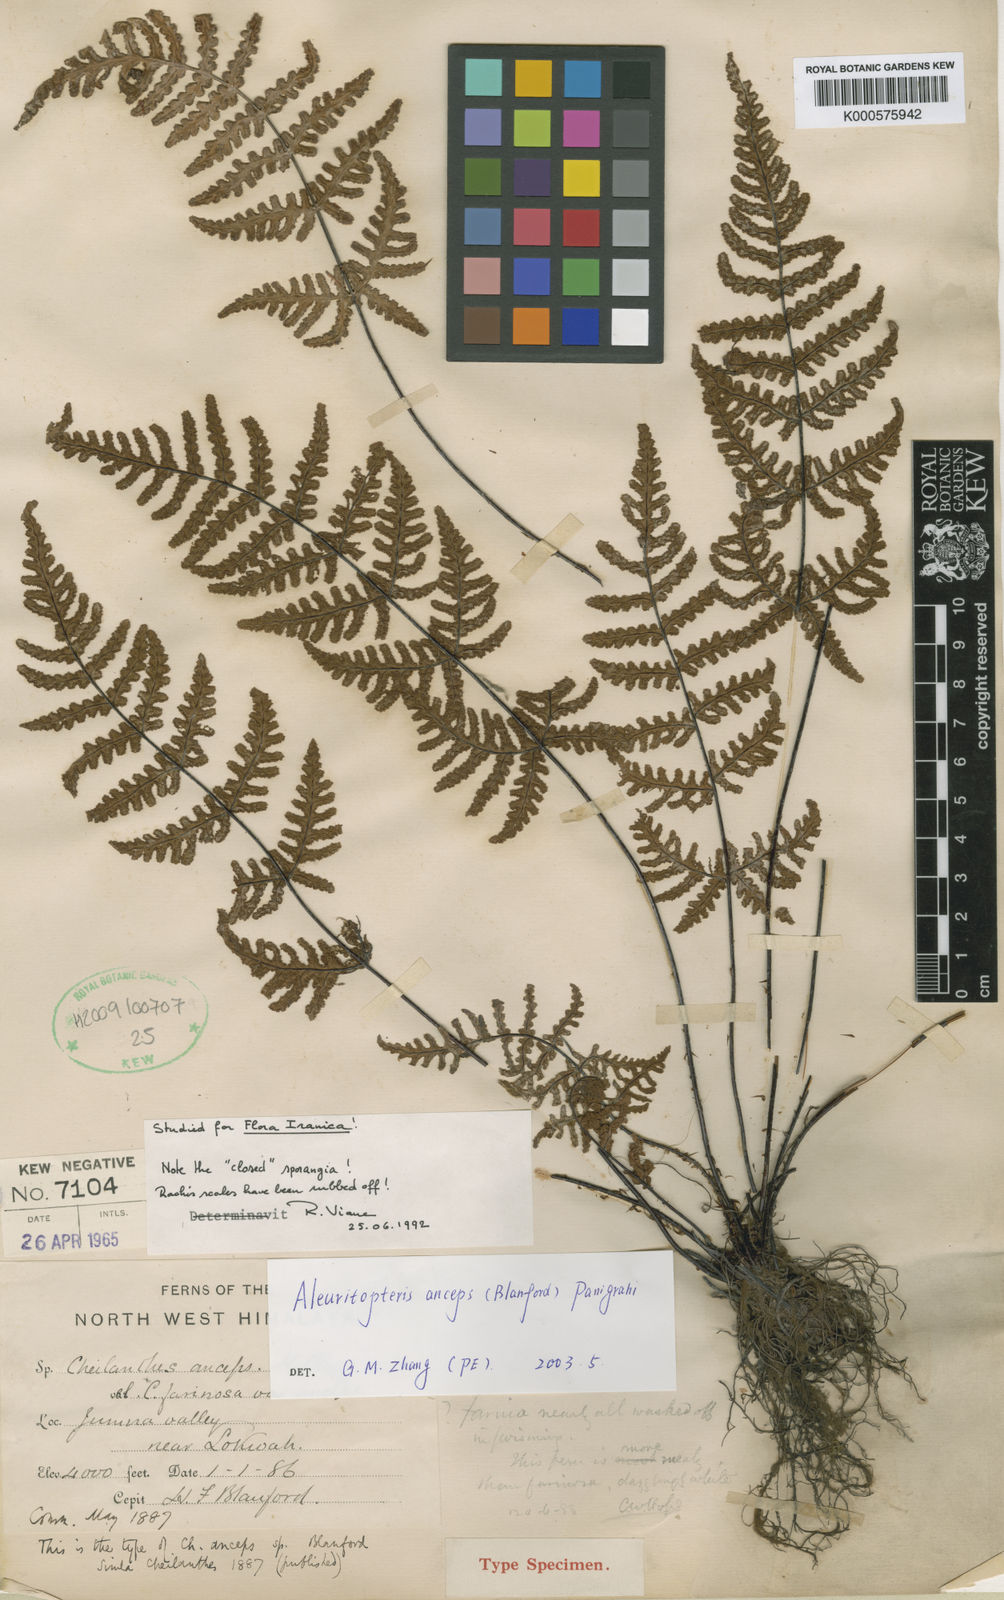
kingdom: Plantae
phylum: Tracheophyta
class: Polypodiopsida
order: Polypodiales
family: Pteridaceae
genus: Aleuritopteris
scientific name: Aleuritopteris anceps
